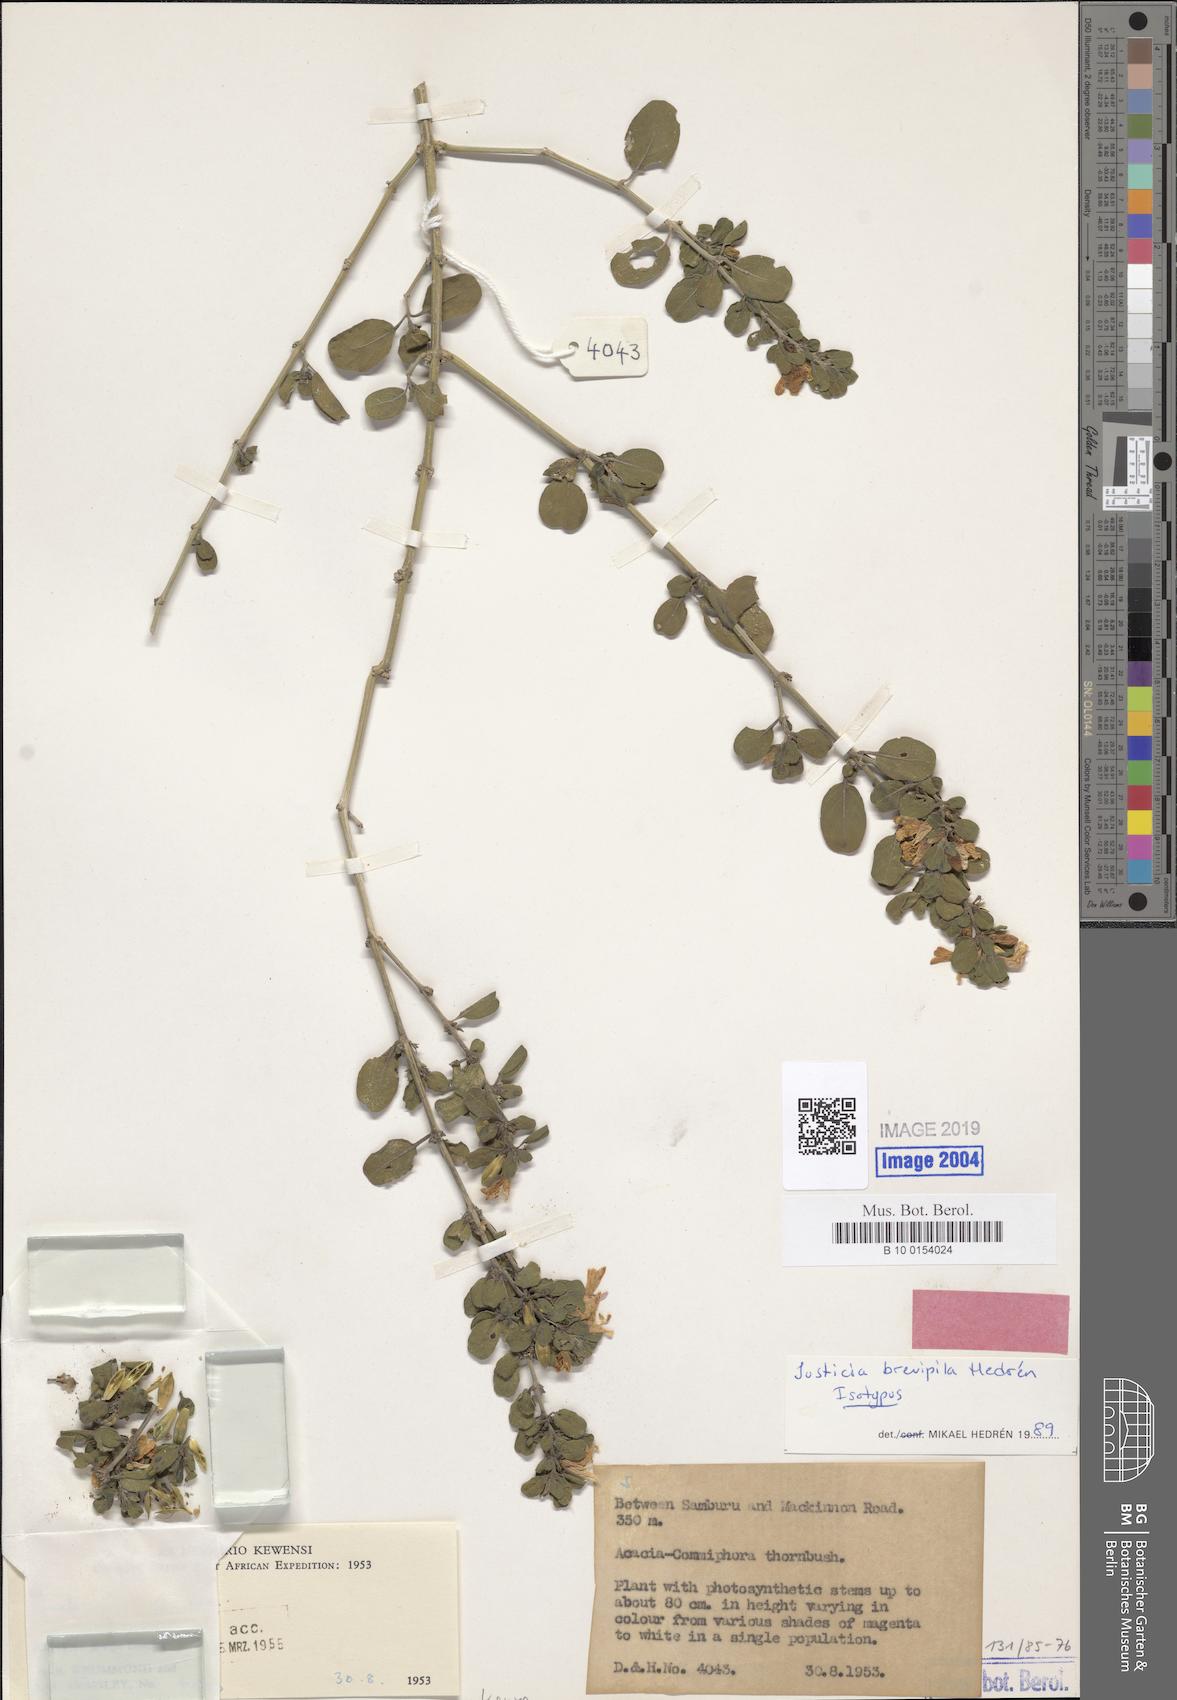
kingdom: Plantae
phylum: Tracheophyta
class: Magnoliopsida
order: Lamiales
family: Acanthaceae
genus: Justicia
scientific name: Justicia brevipila
